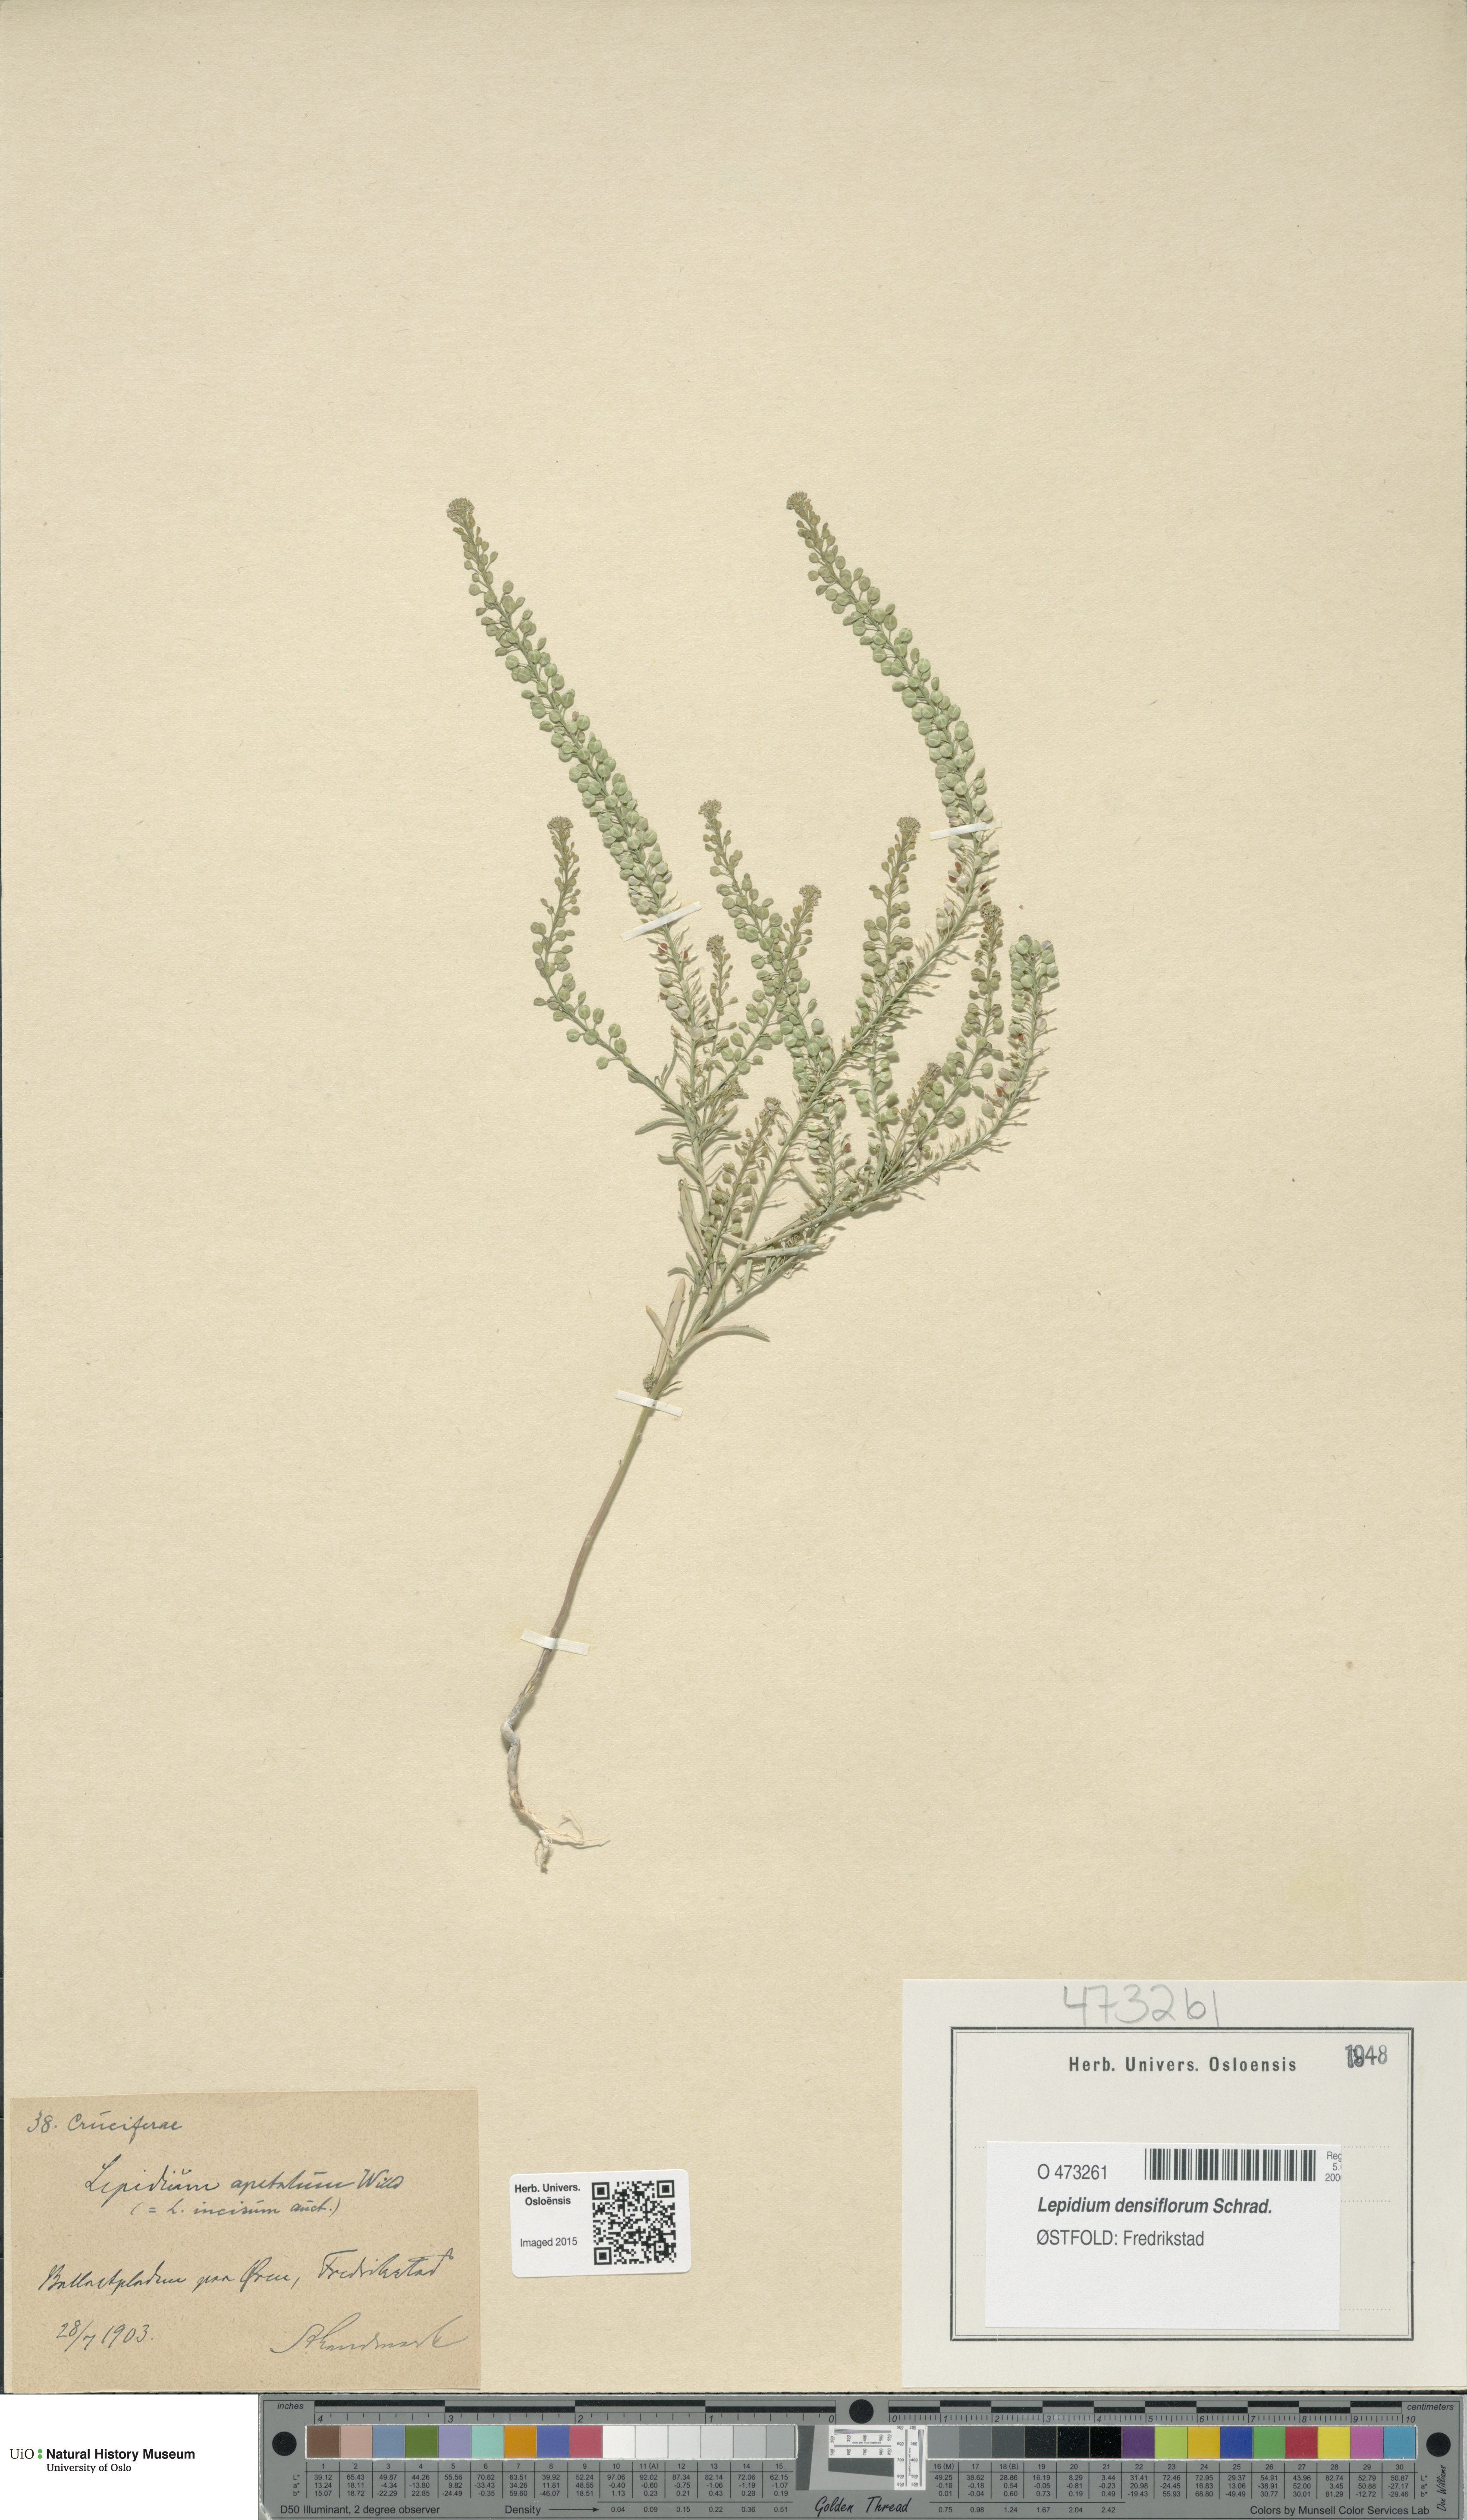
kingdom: Plantae
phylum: Tracheophyta
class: Magnoliopsida
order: Brassicales
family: Brassicaceae
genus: Lepidium
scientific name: Lepidium densiflorum
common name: Miner's pepperwort
